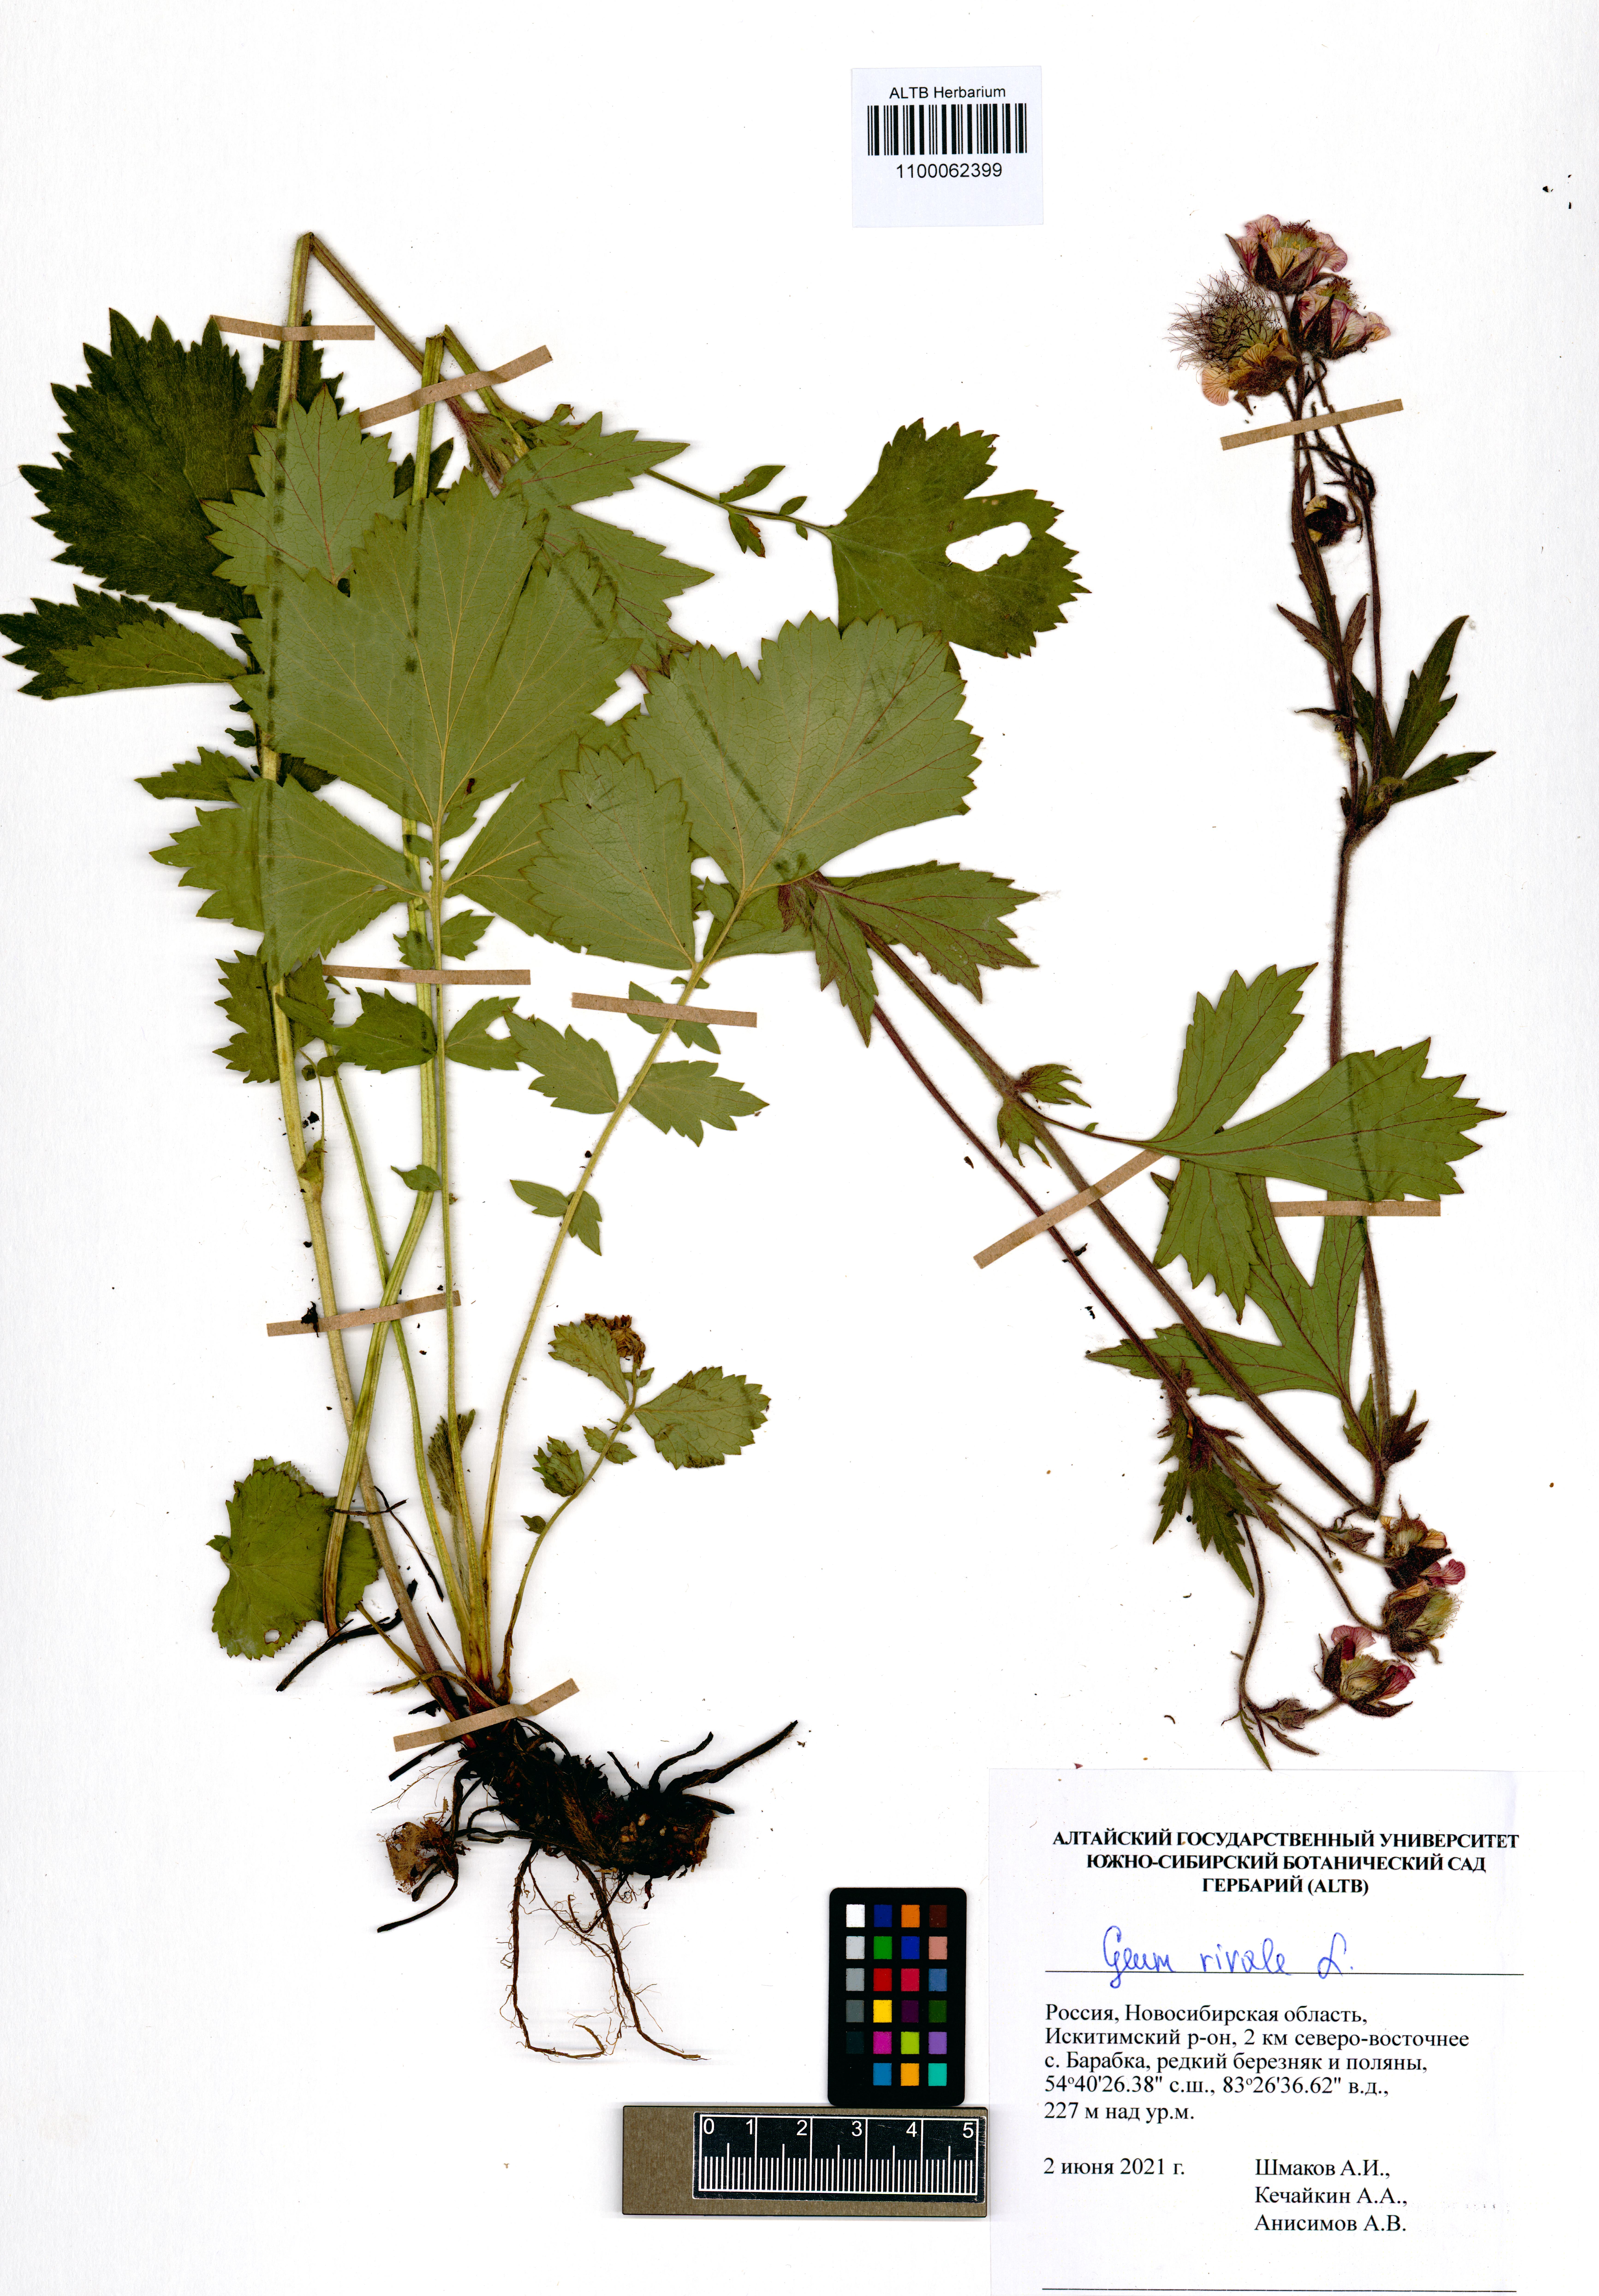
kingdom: Plantae
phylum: Tracheophyta
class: Magnoliopsida
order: Rosales
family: Rosaceae
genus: Geum
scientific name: Geum rivale
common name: Water avens
